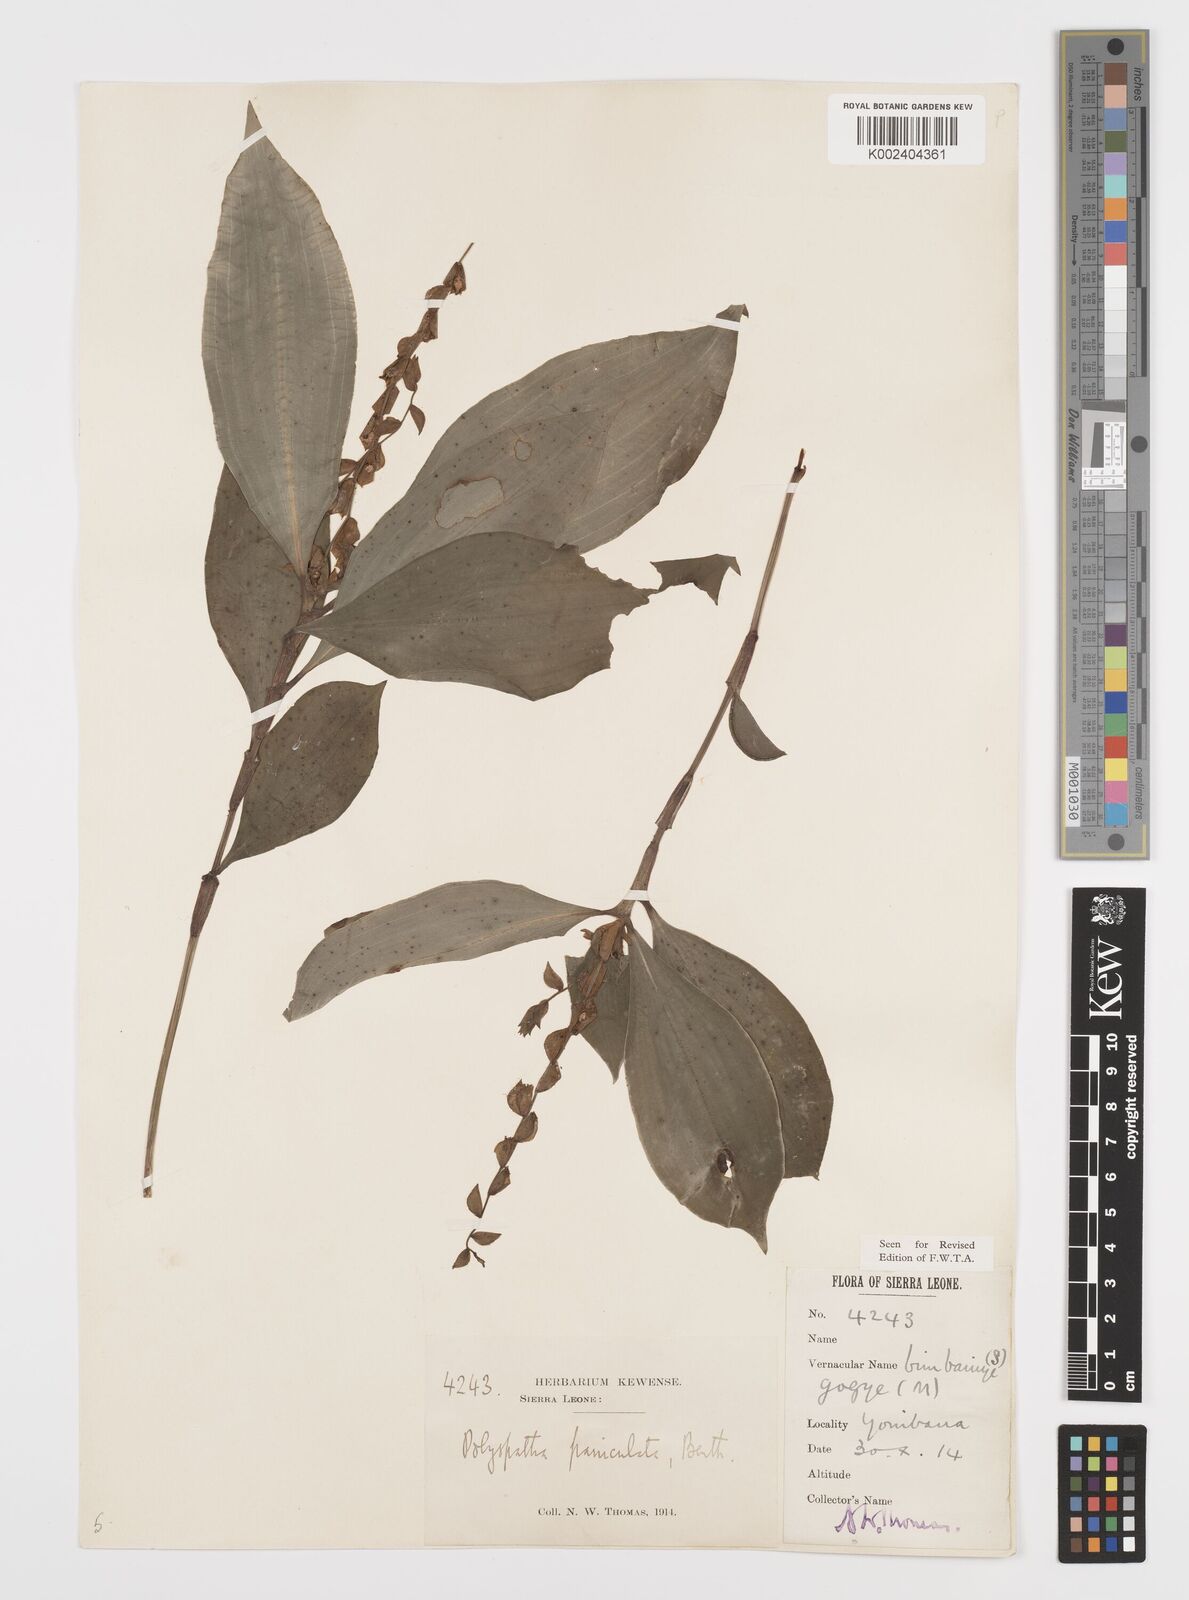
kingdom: Plantae
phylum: Tracheophyta
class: Liliopsida
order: Commelinales
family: Commelinaceae
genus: Polyspatha
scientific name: Polyspatha paniculata
